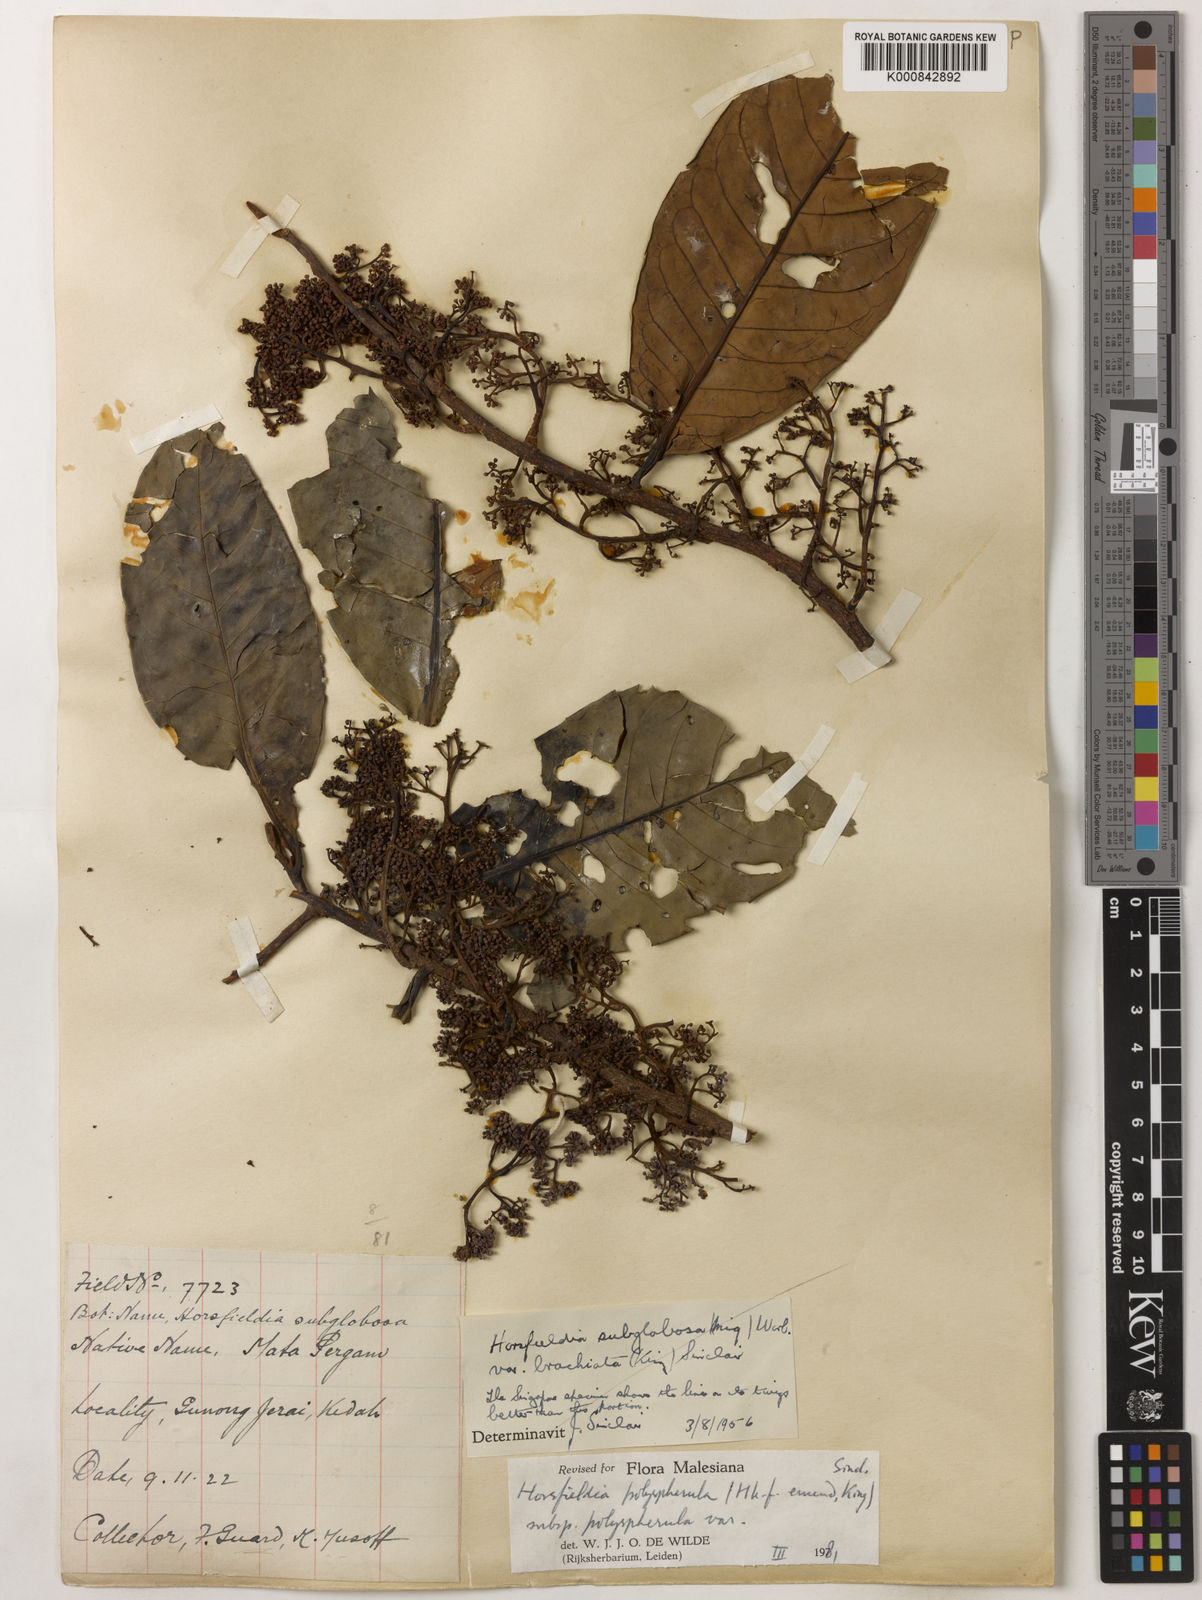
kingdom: Plantae
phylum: Tracheophyta
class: Magnoliopsida
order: Magnoliales
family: Myristicaceae
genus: Horsfieldia
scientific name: Horsfieldia
